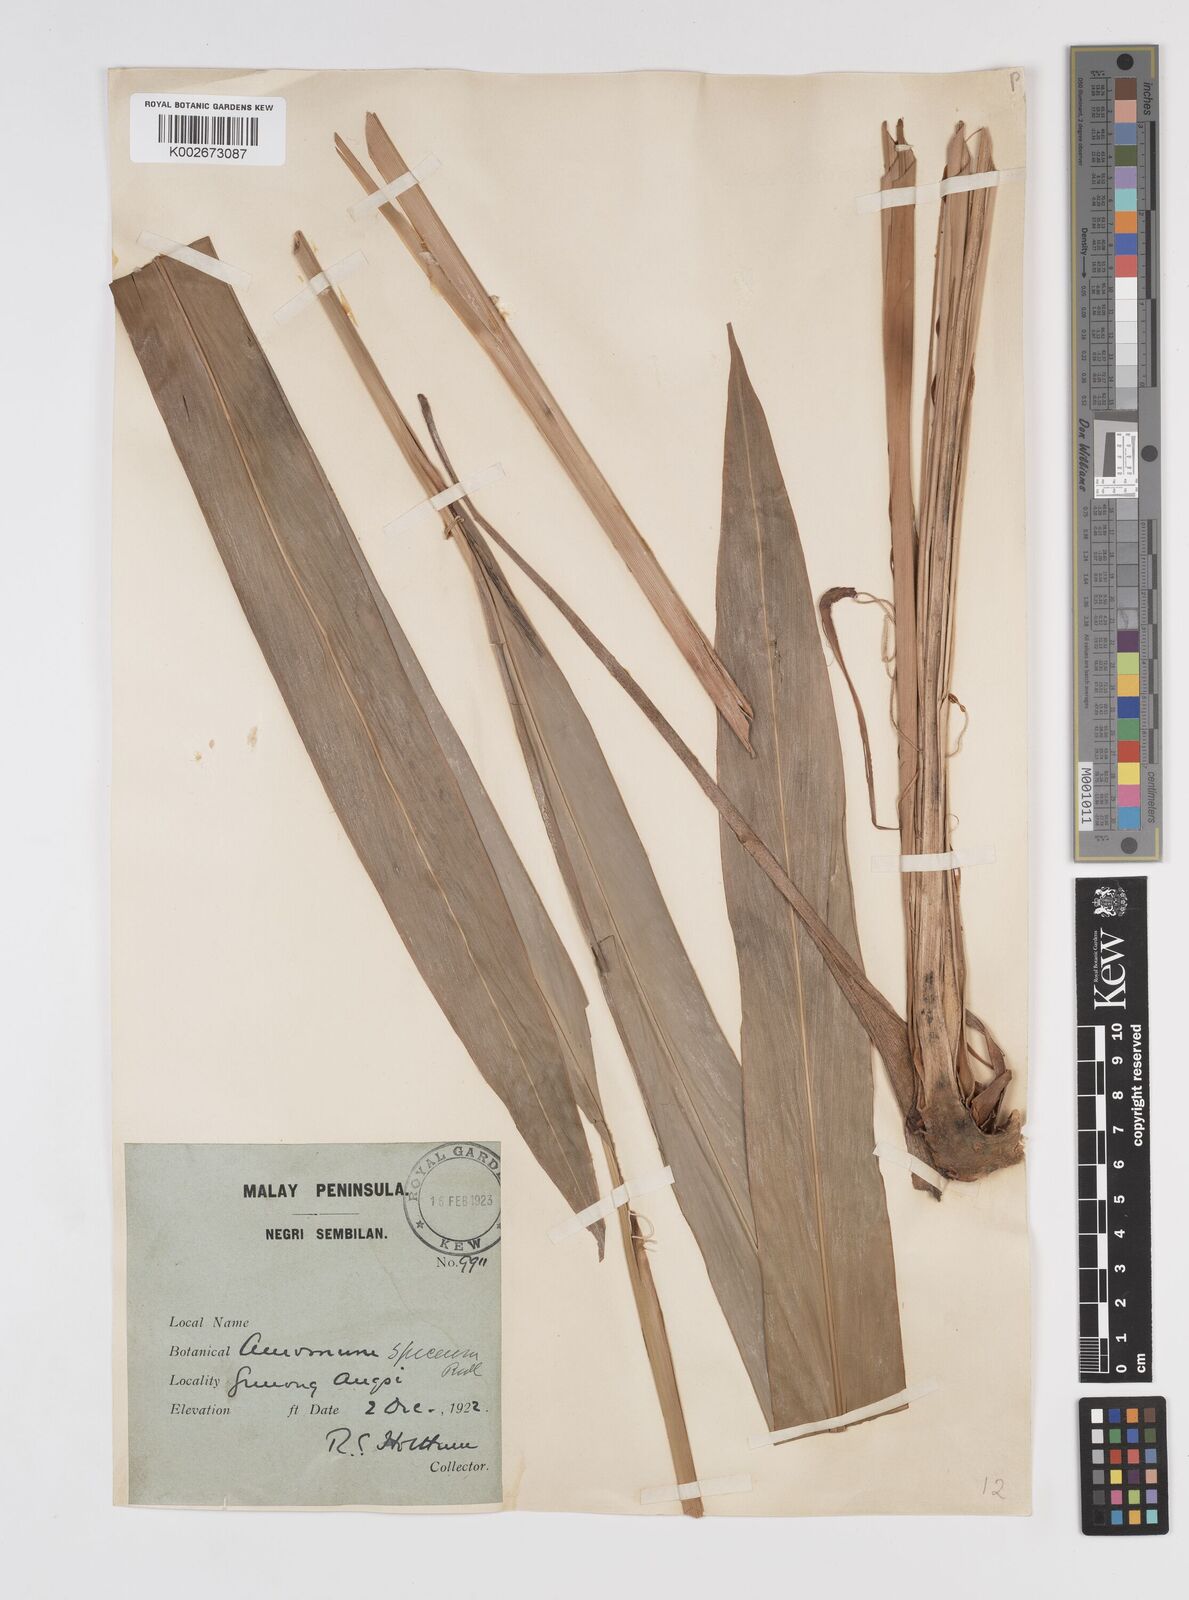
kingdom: Plantae
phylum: Tracheophyta
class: Liliopsida
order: Zingiberales
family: Zingiberaceae
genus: Conamomum
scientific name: Conamomum spiceum
